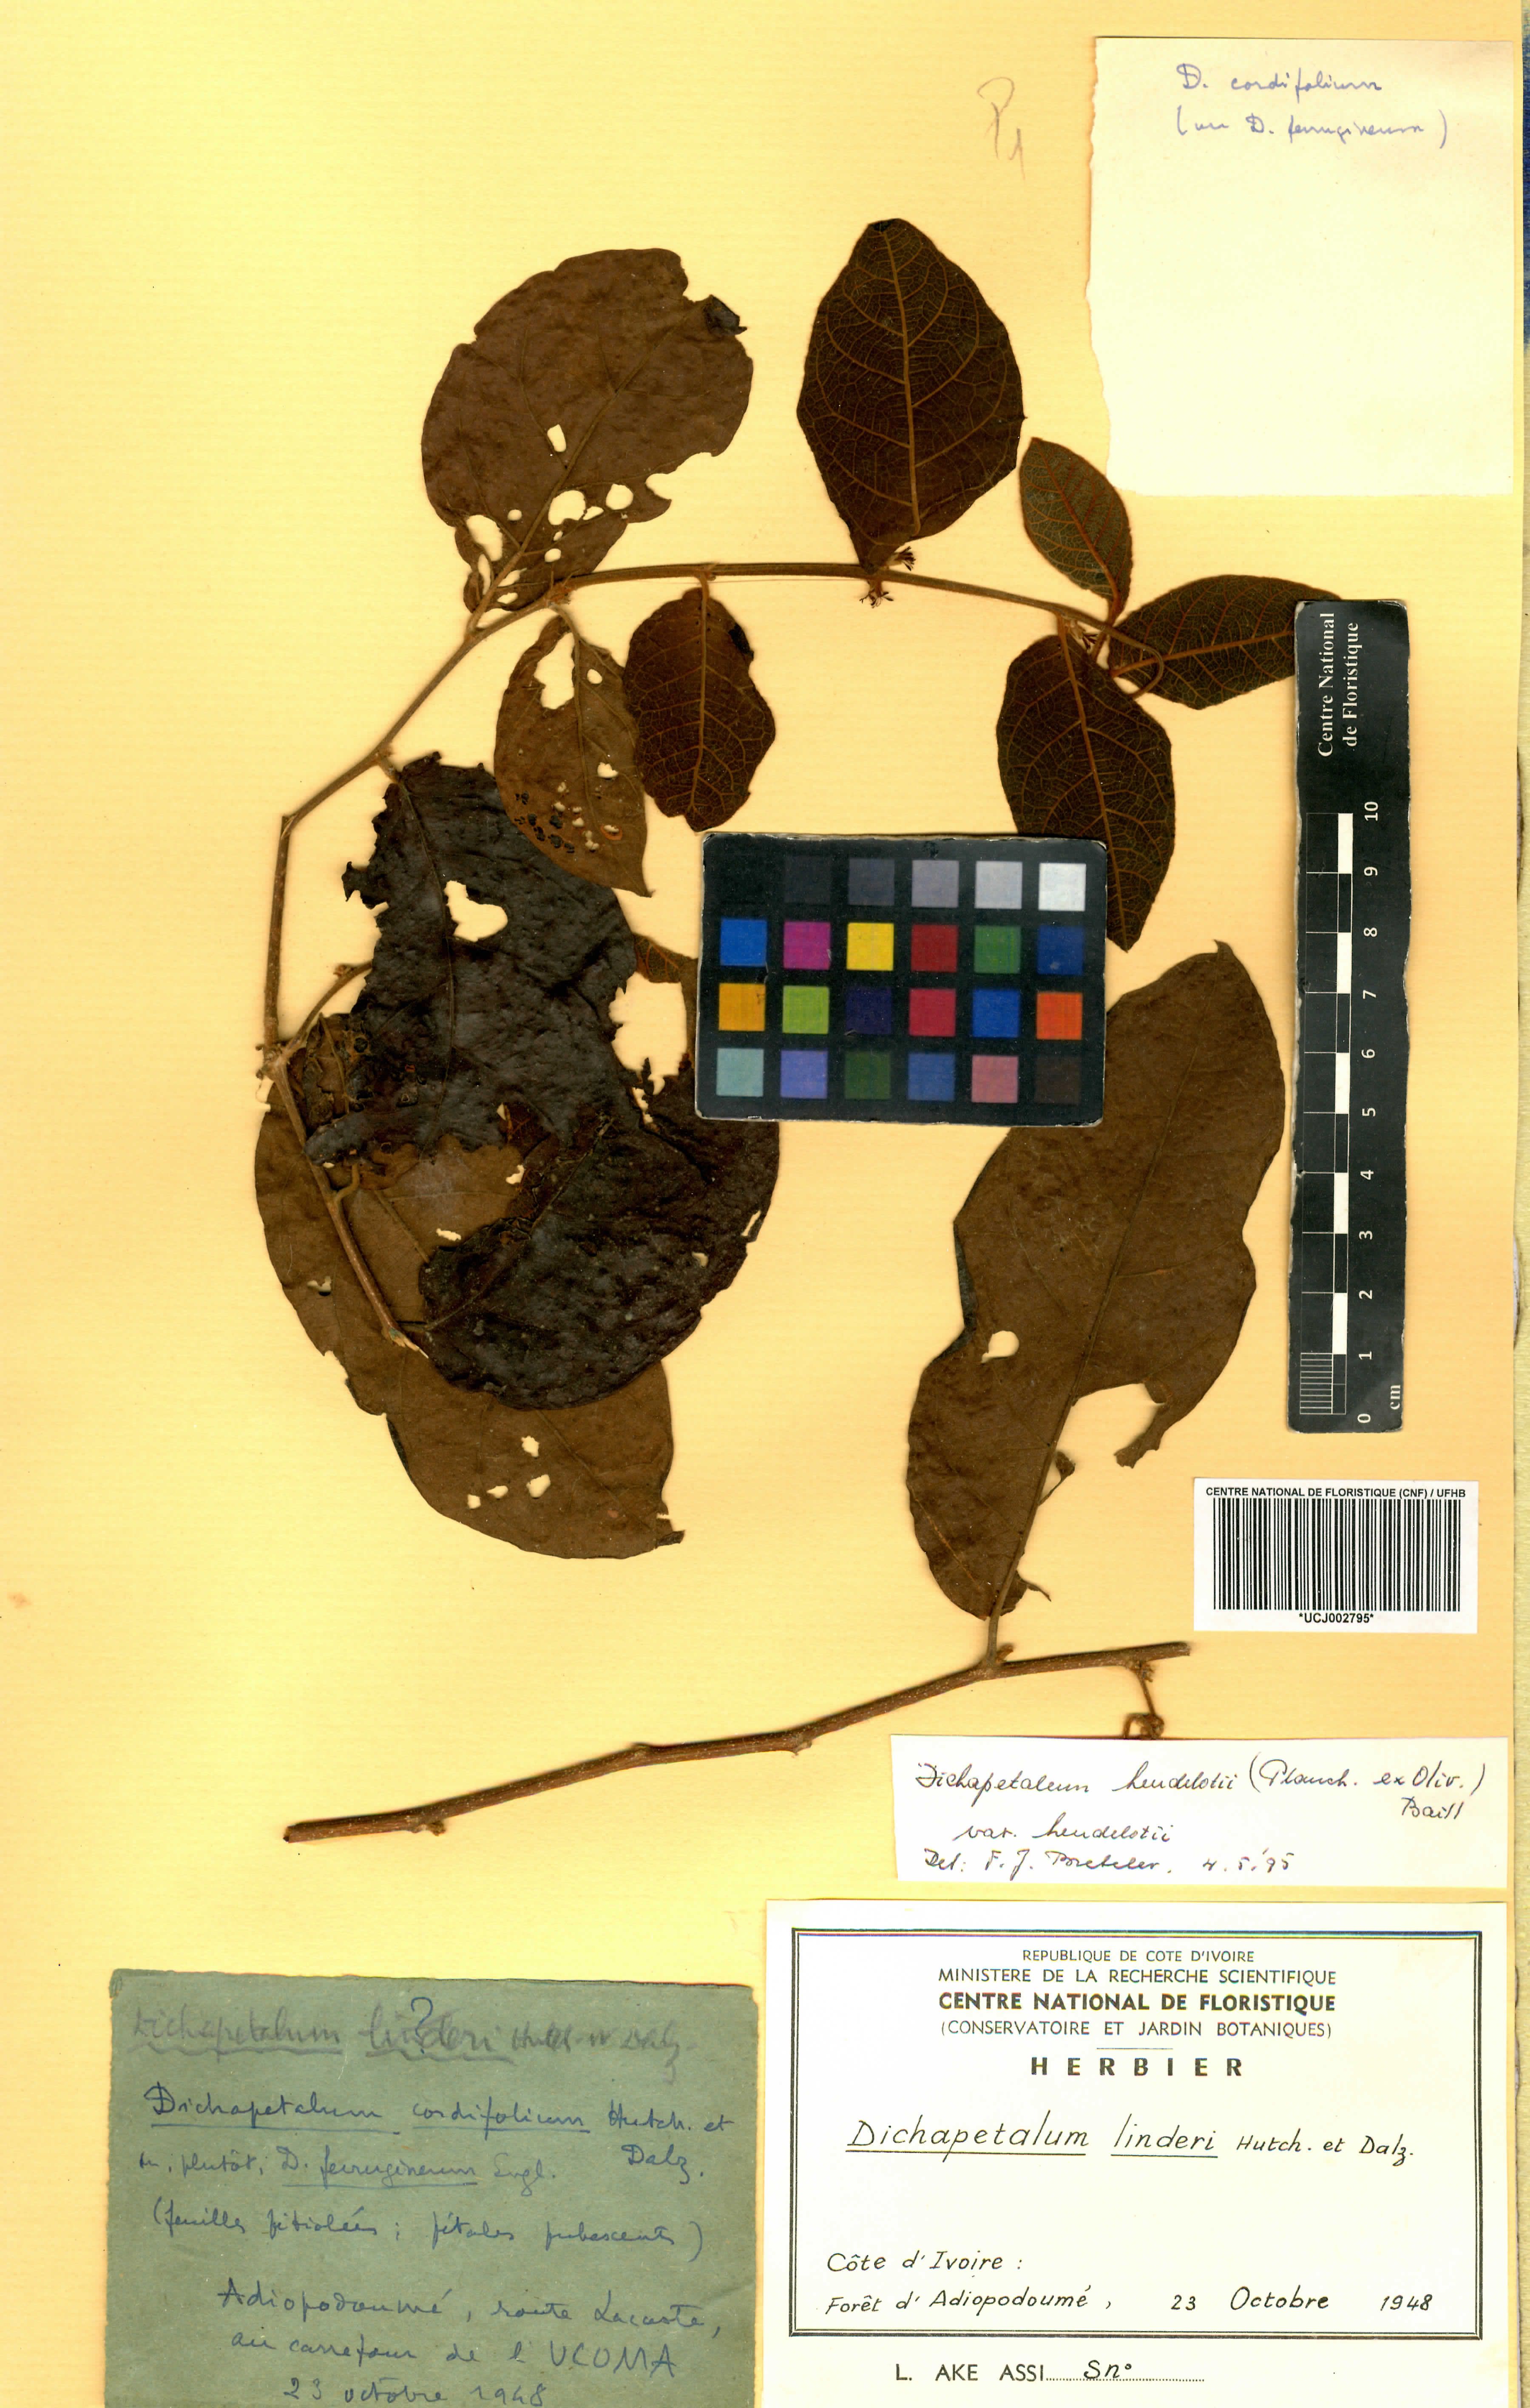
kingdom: Plantae
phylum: Tracheophyta
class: Magnoliopsida
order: Malpighiales
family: Dichapetalaceae
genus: Dichapetalum
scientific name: Dichapetalum heudelotii
